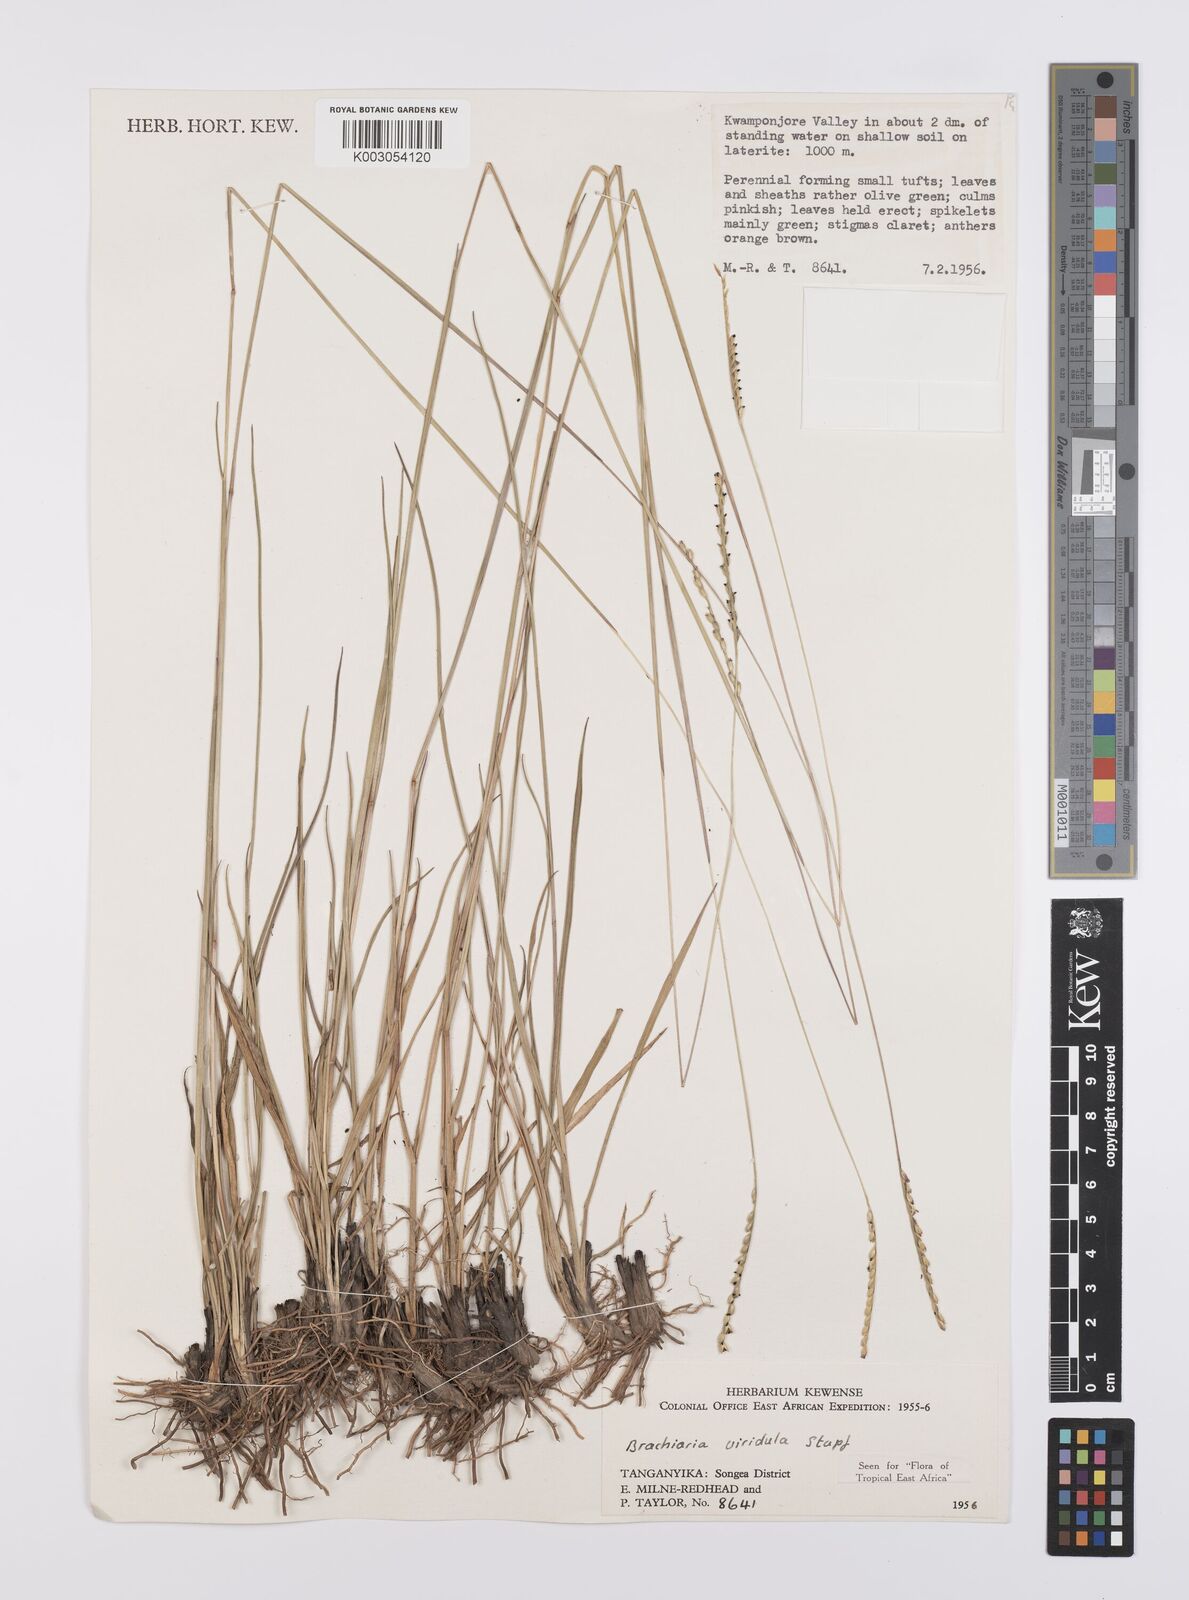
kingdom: Plantae
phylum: Tracheophyta
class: Liliopsida
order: Poales
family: Poaceae
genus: Urochloa
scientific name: Urochloa bovonei
